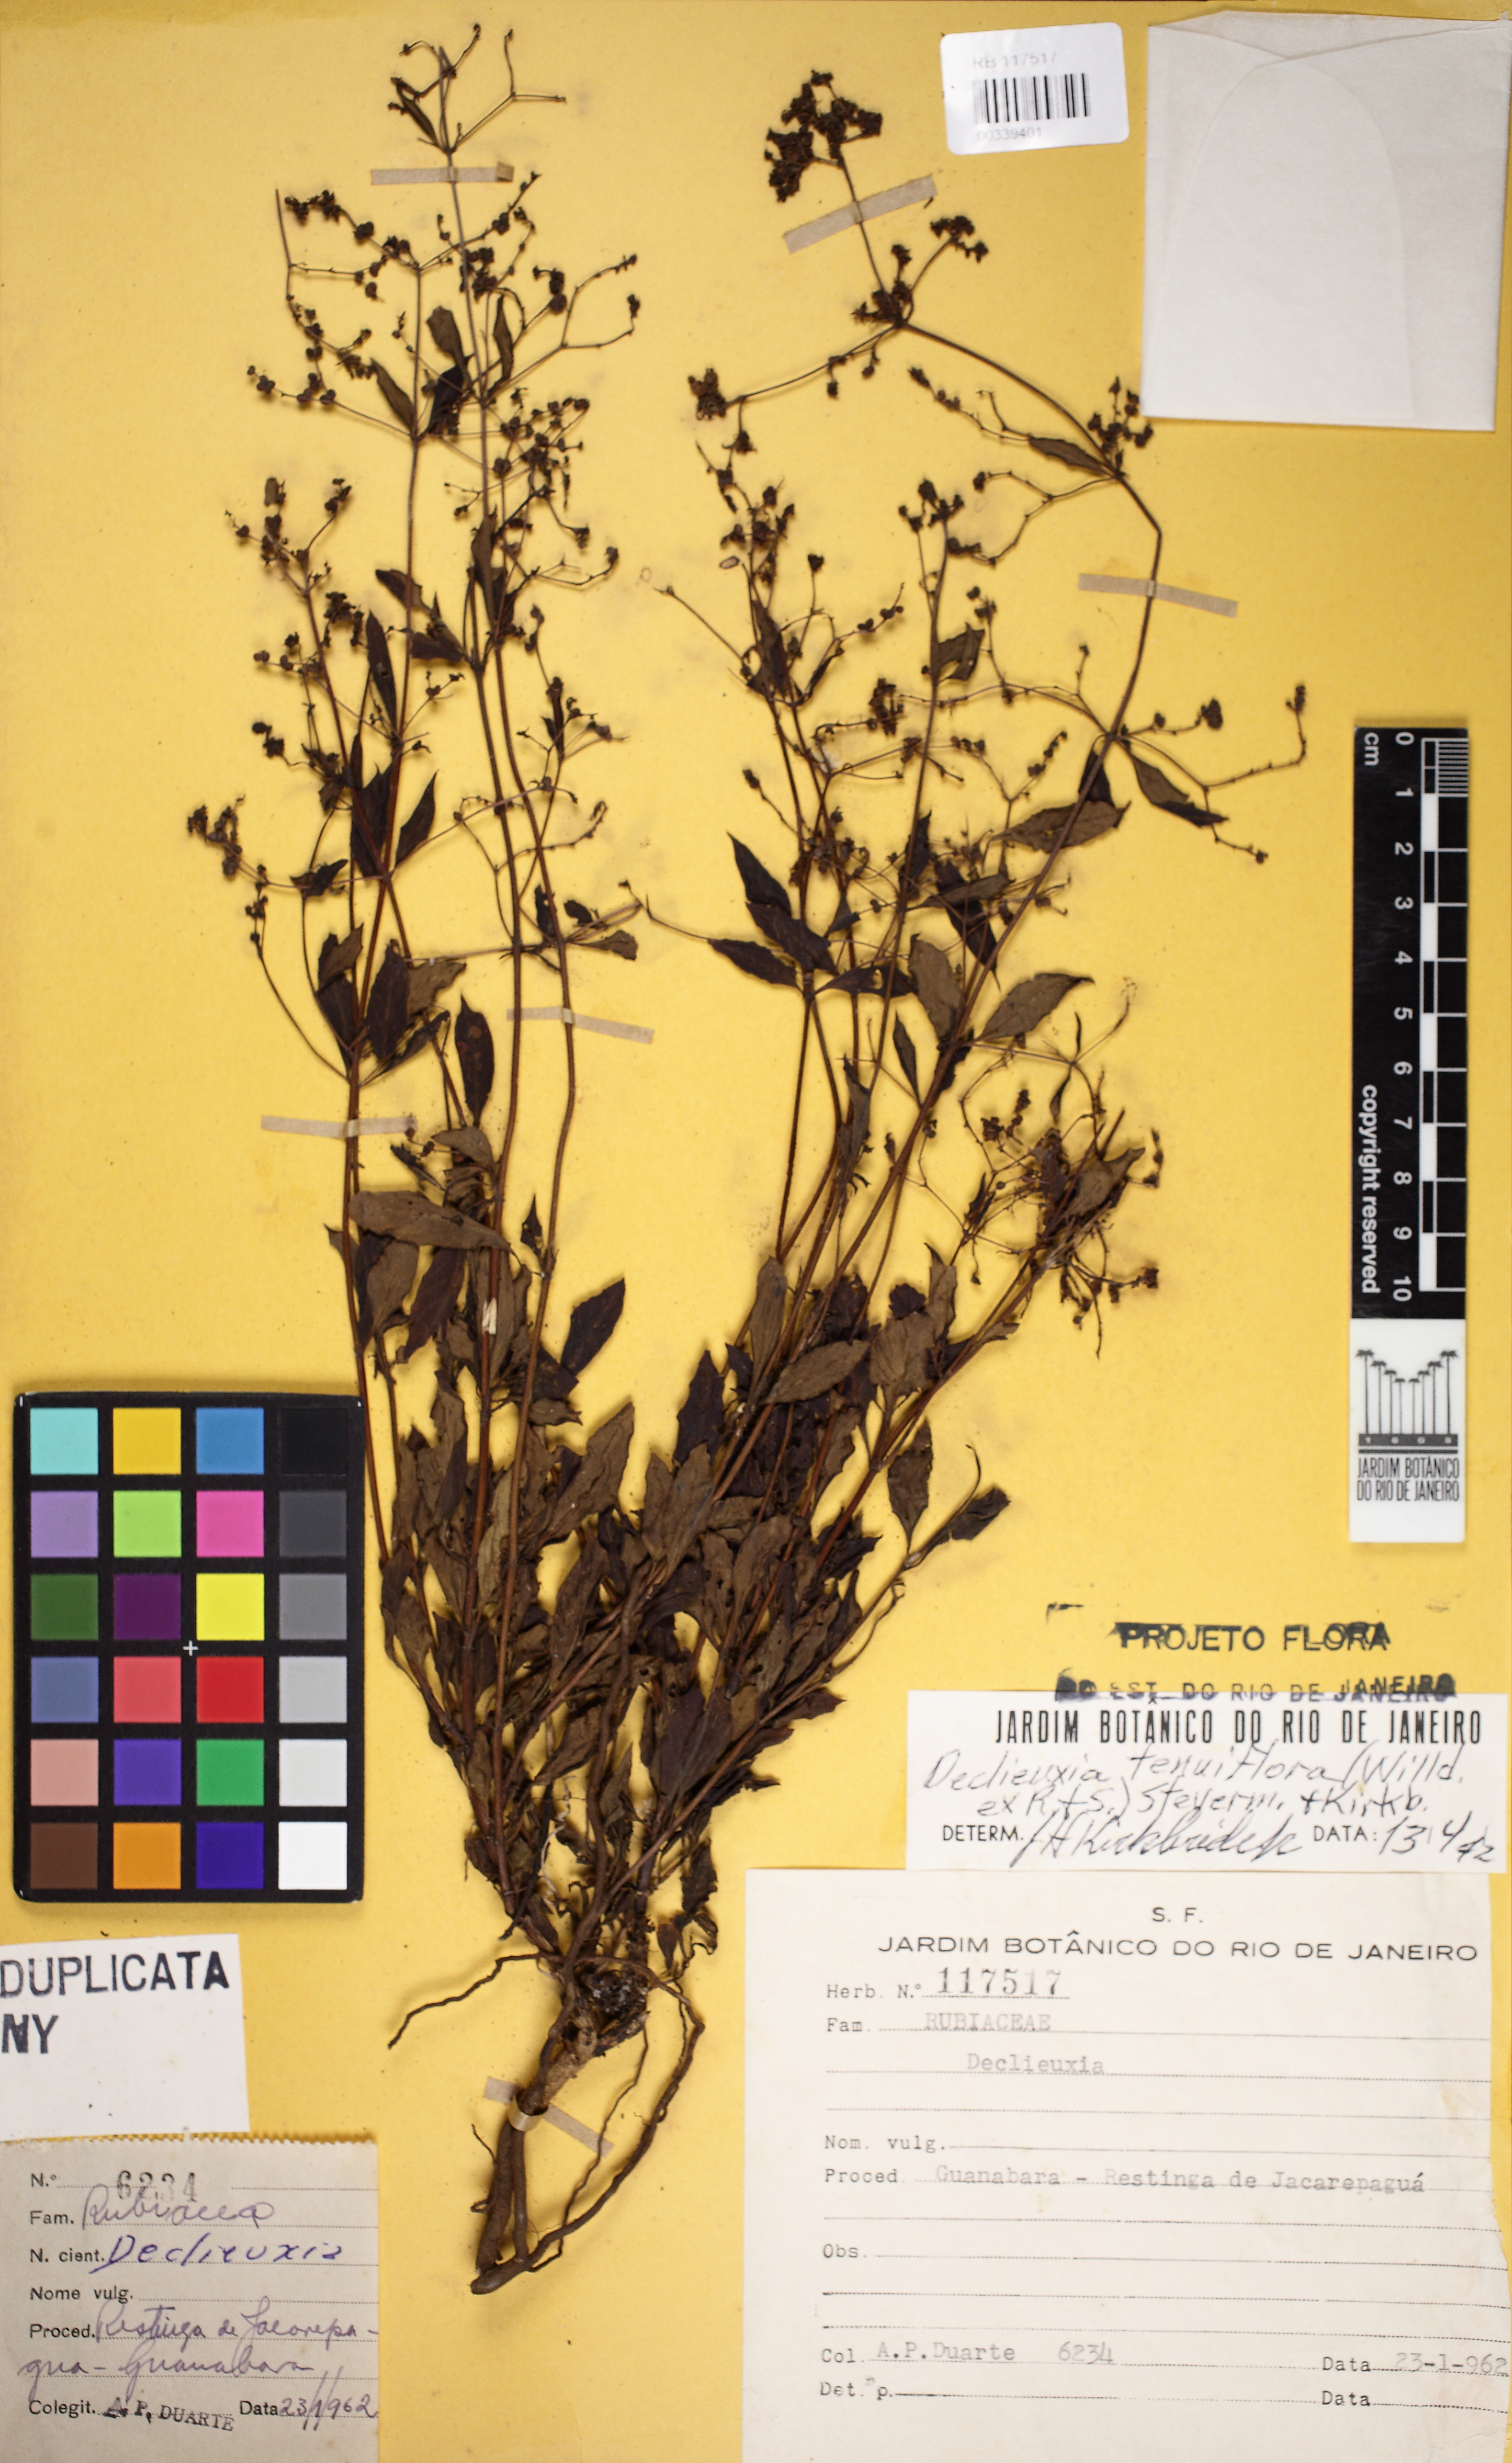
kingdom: Plantae
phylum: Tracheophyta
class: Magnoliopsida
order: Gentianales
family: Rubiaceae
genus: Declieuxia
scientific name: Declieuxia tenuiflora
